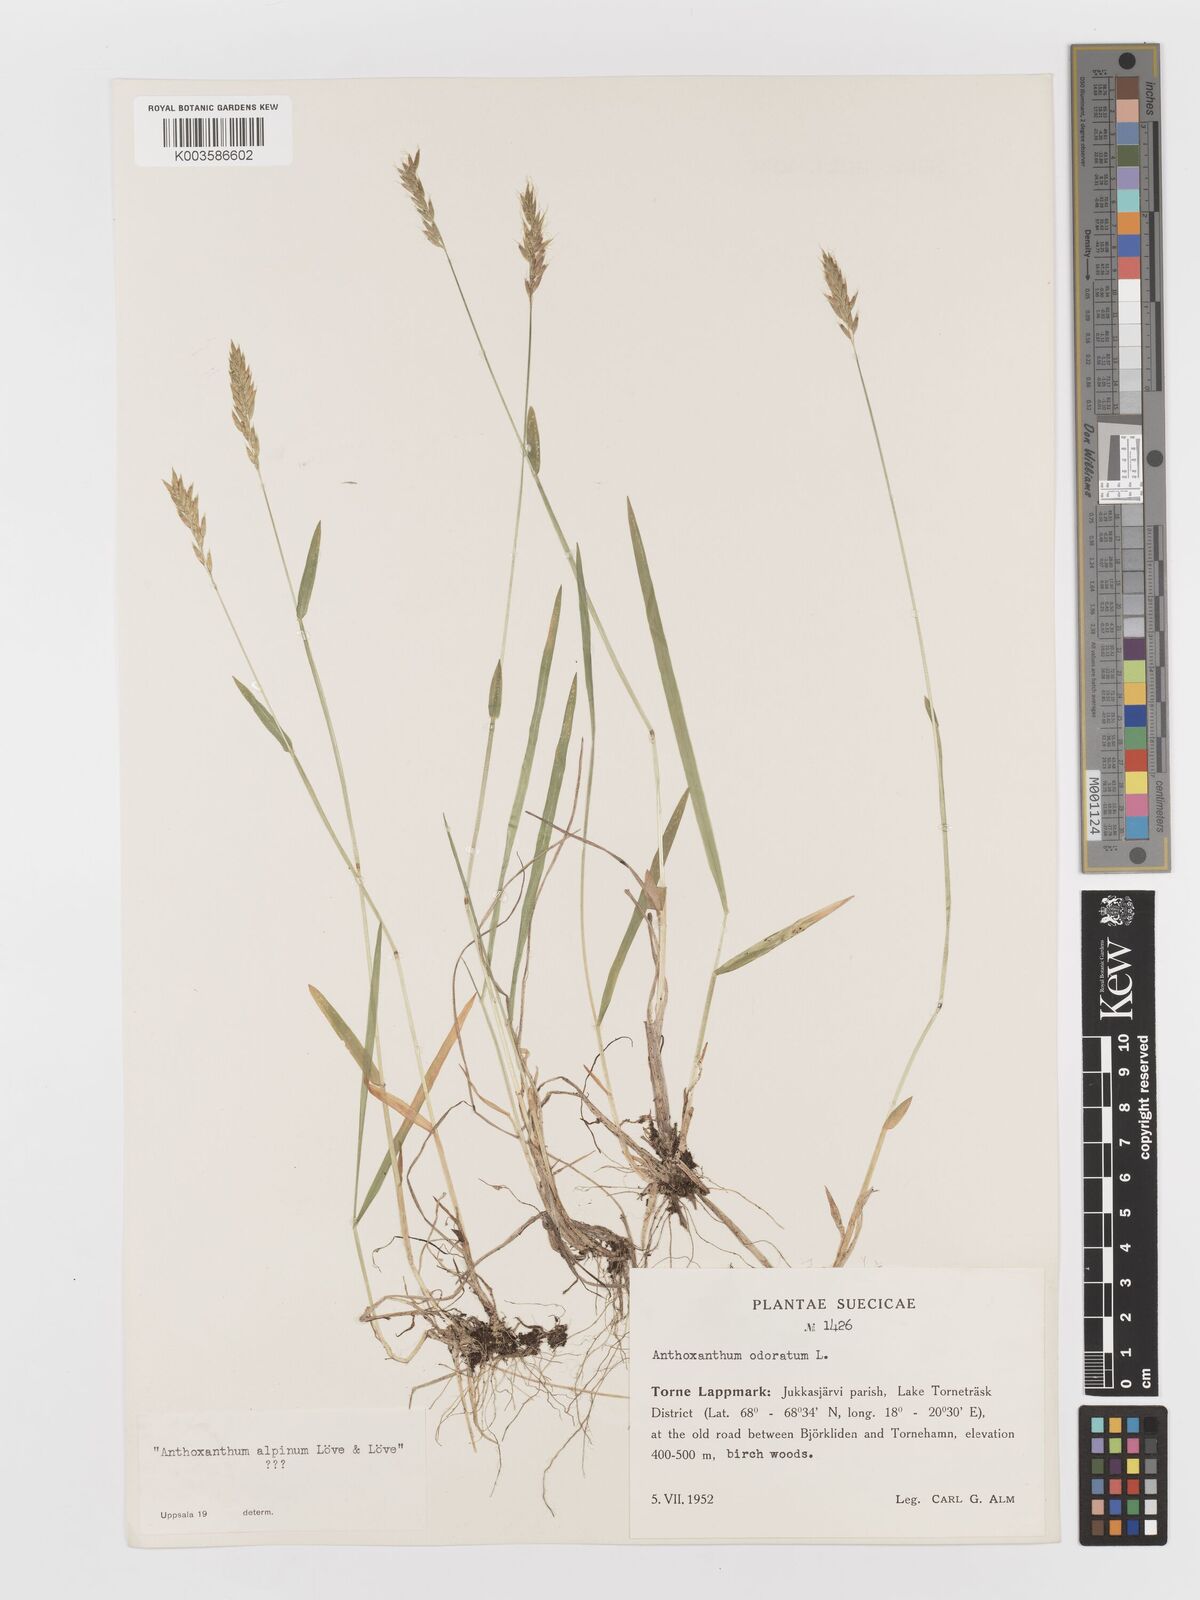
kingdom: Plantae
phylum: Tracheophyta
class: Liliopsida
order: Poales
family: Poaceae
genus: Anthoxanthum
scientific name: Anthoxanthum odoratum
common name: Sweet vernalgrass
